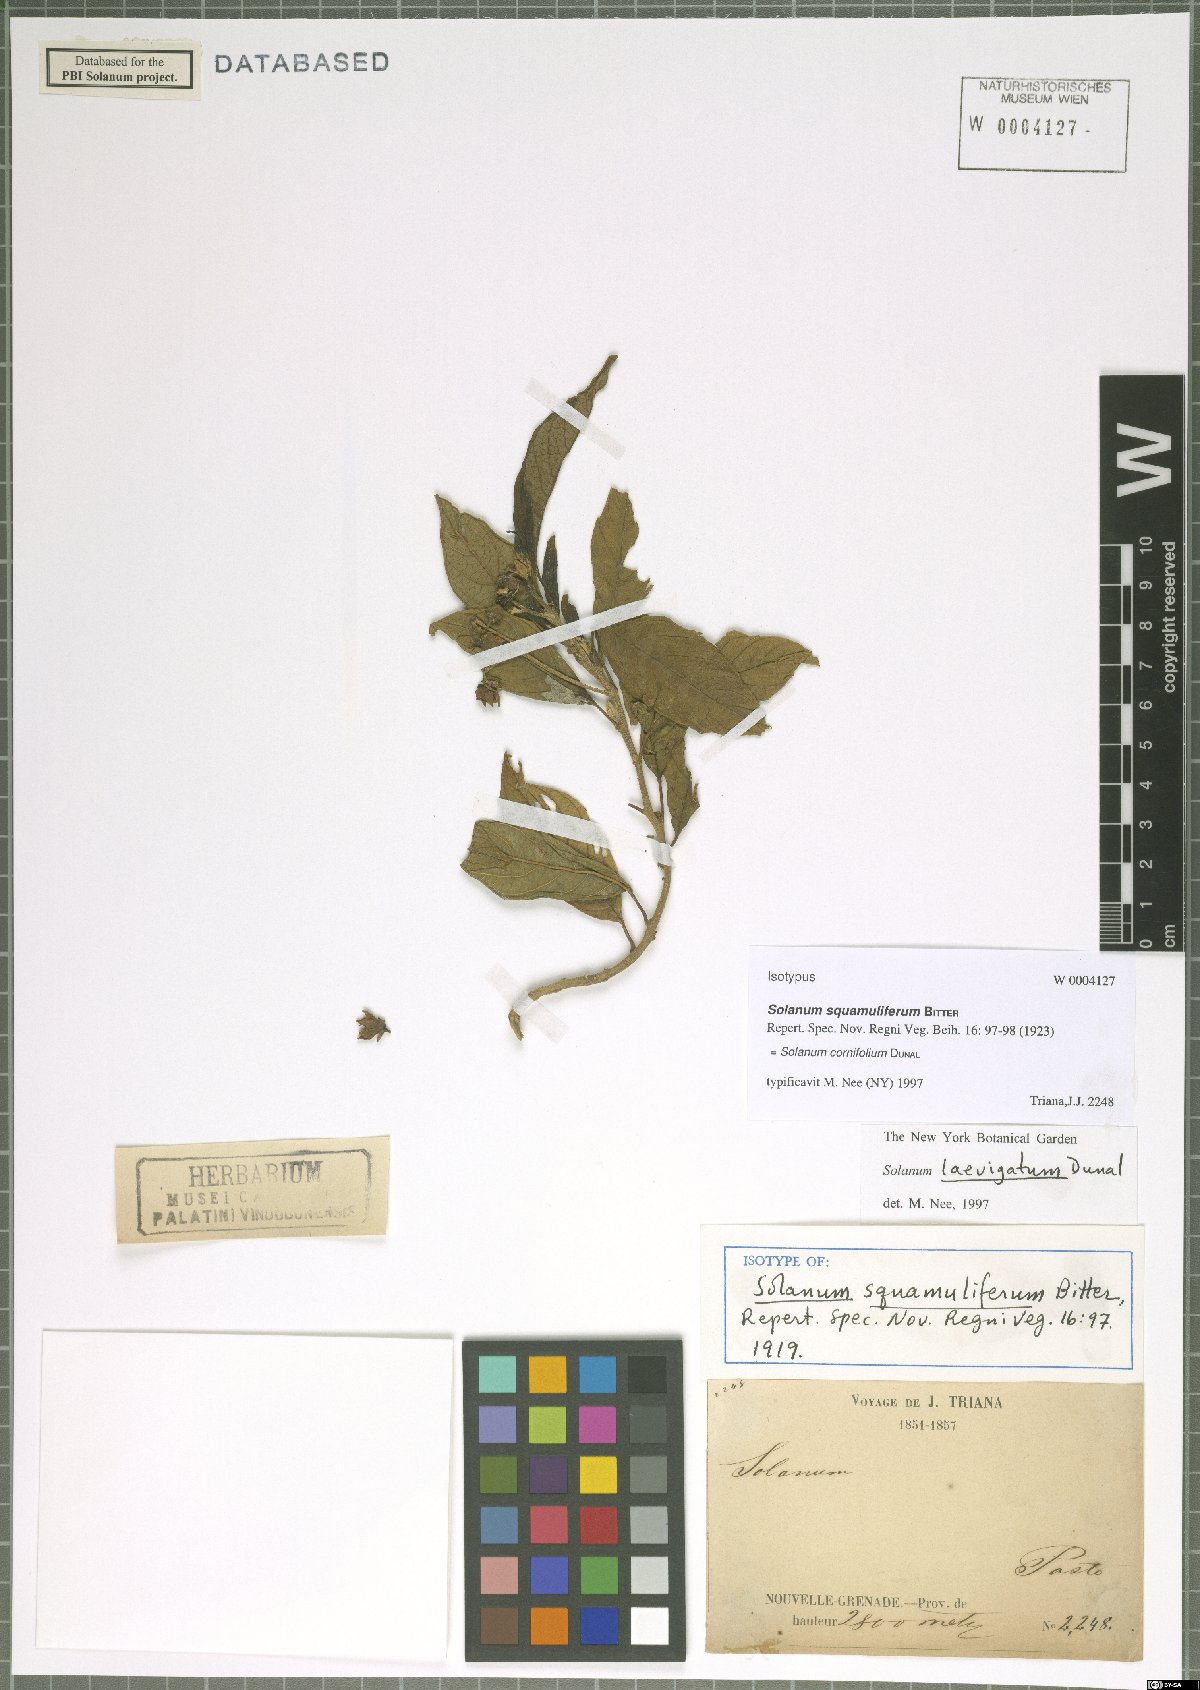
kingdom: Plantae
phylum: Tracheophyta
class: Magnoliopsida
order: Solanales
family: Solanaceae
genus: Solanum
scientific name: Solanum cornifolium
